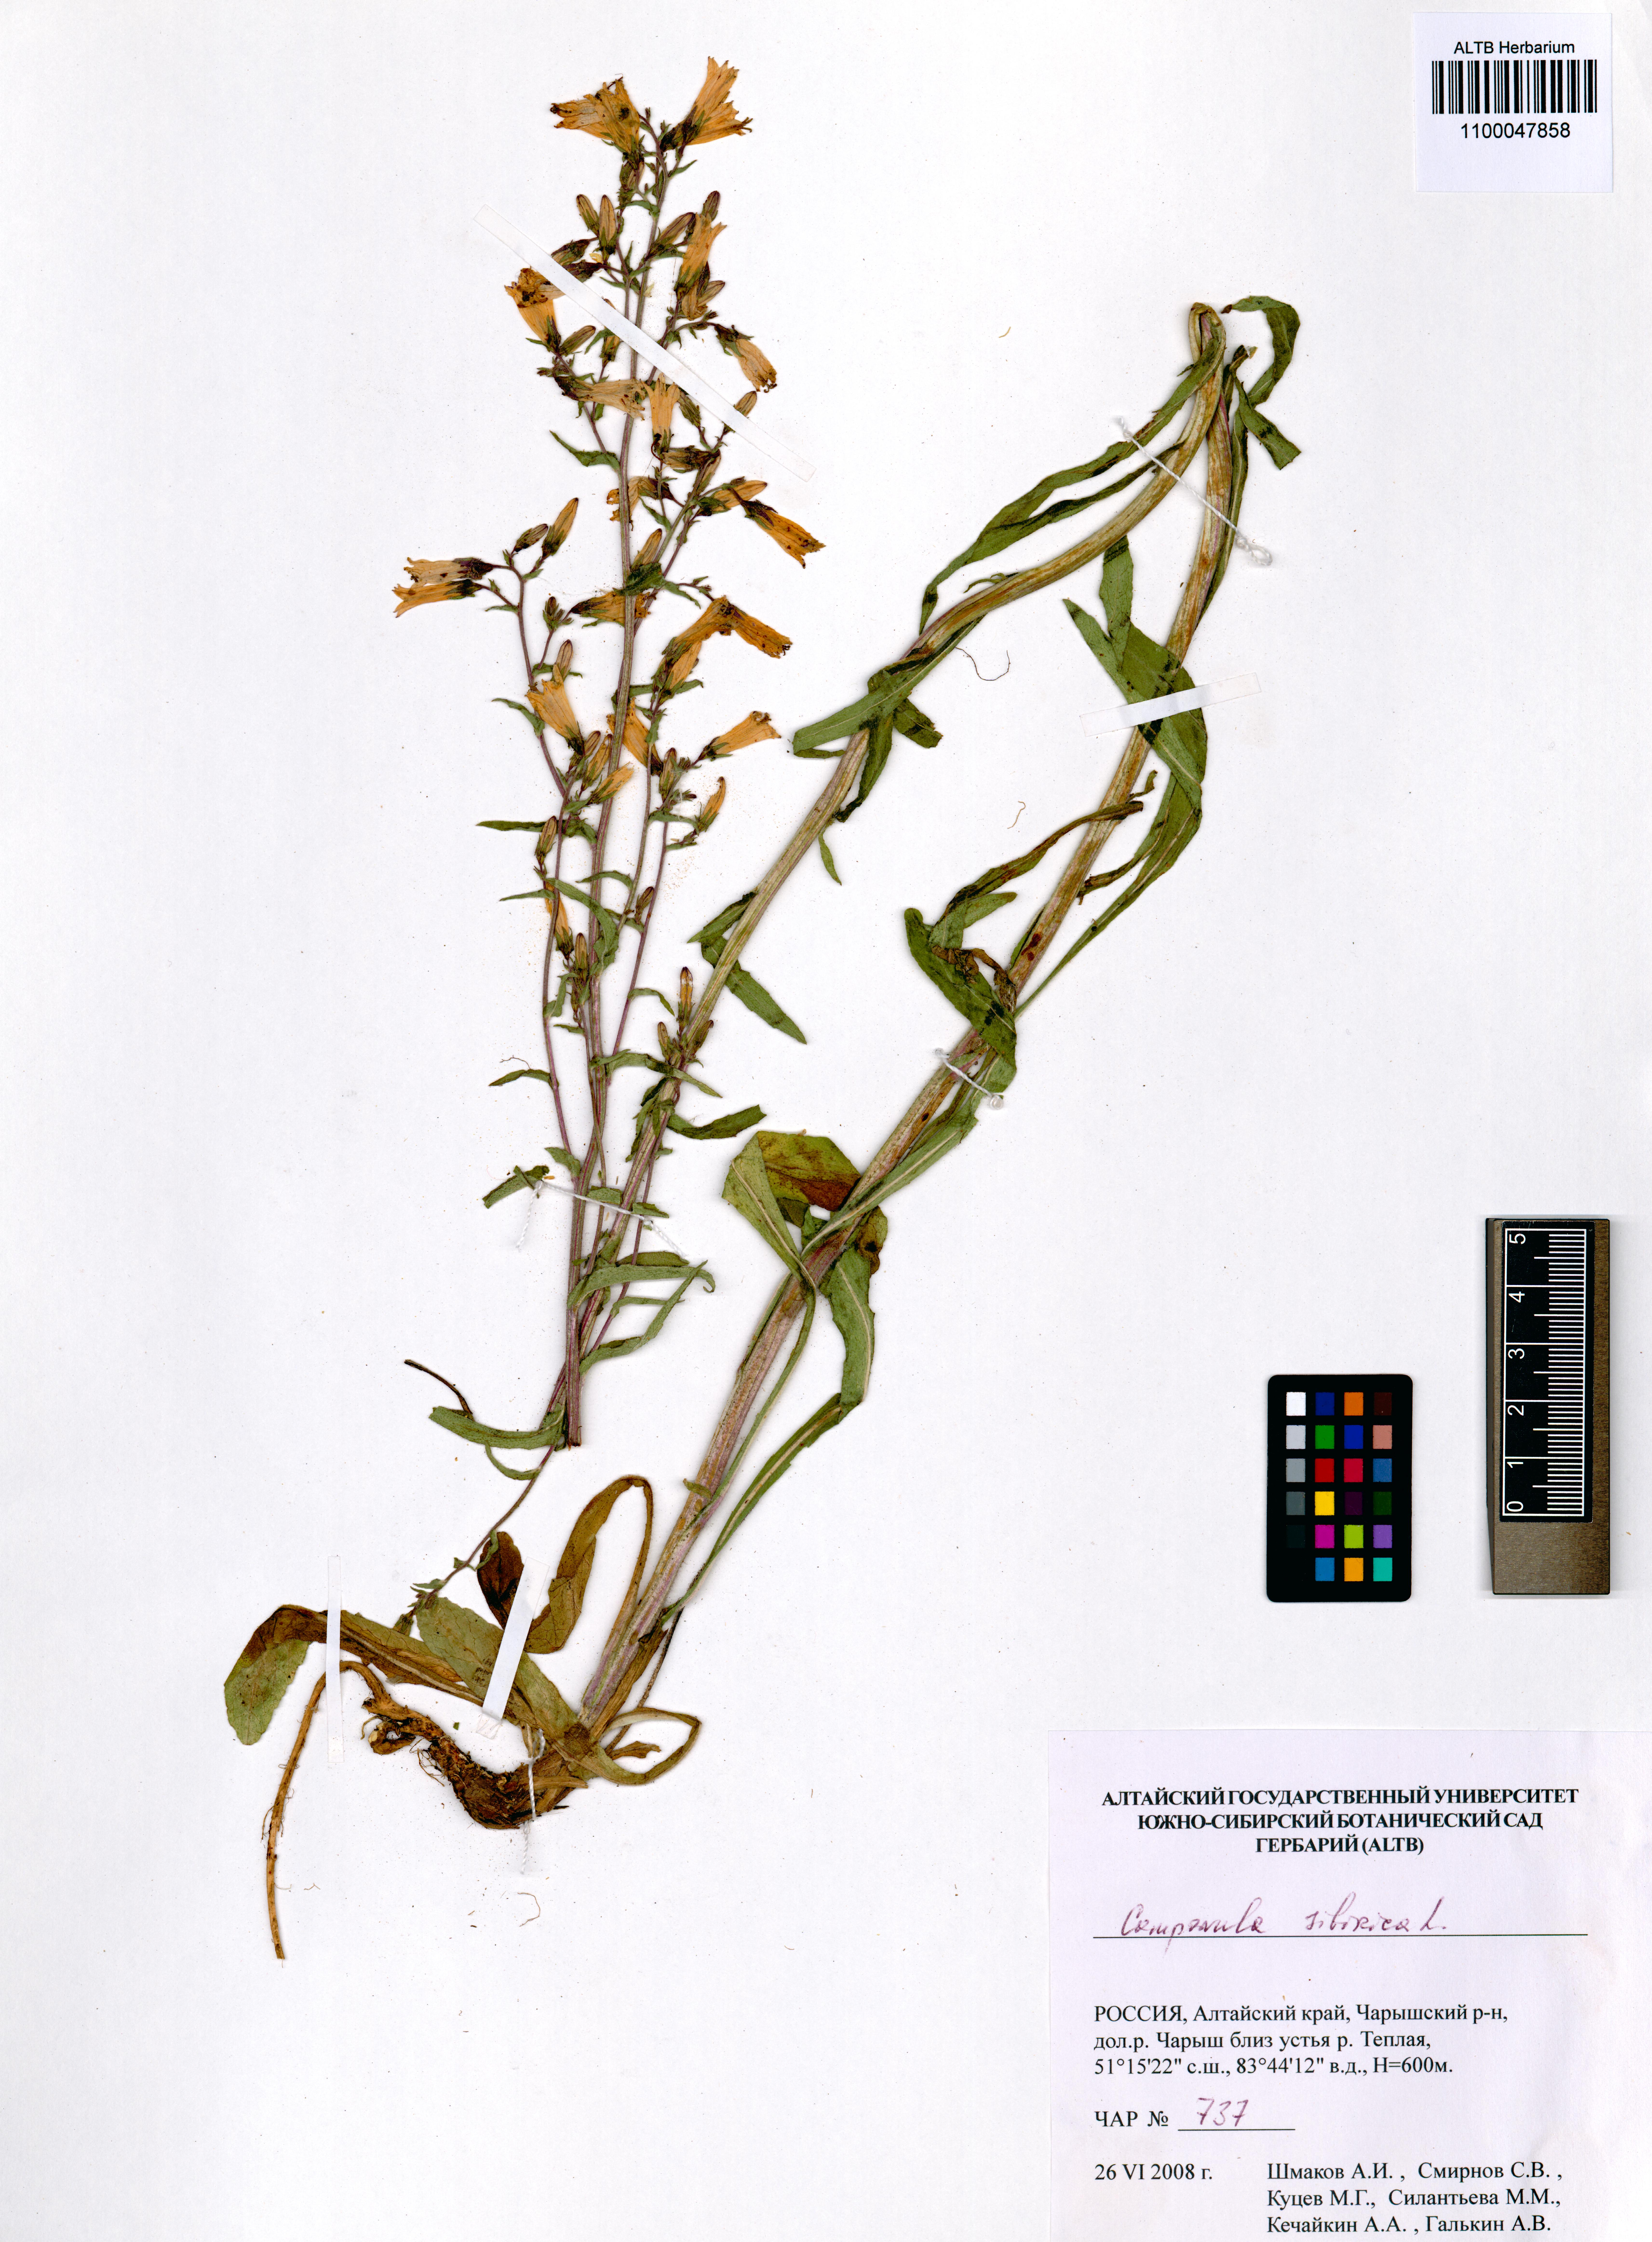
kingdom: Plantae
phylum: Tracheophyta
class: Magnoliopsida
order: Asterales
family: Campanulaceae
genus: Campanula
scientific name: Campanula sibirica
